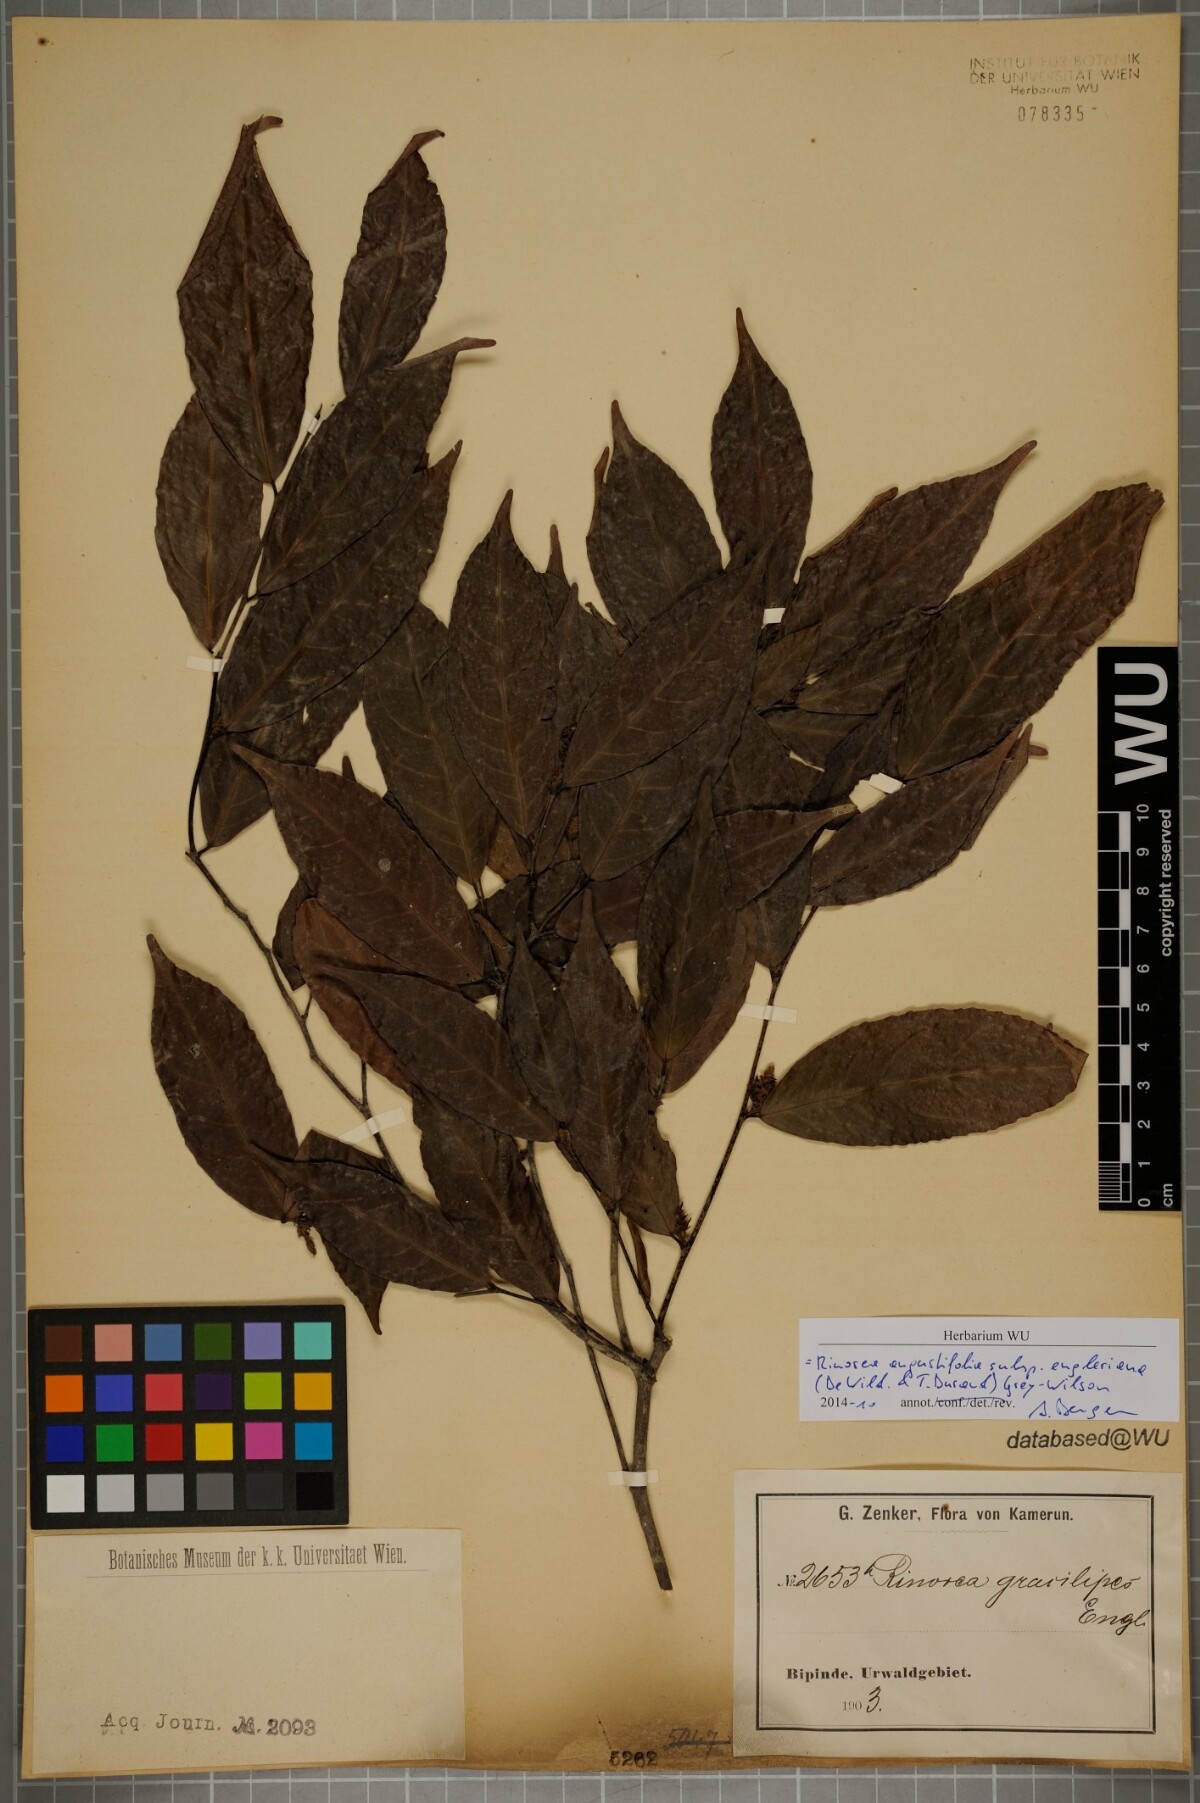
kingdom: Plantae
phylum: Tracheophyta
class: Magnoliopsida
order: Malpighiales
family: Violaceae
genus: Rinorea
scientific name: Rinorea angustifolia
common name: White violet-bush
